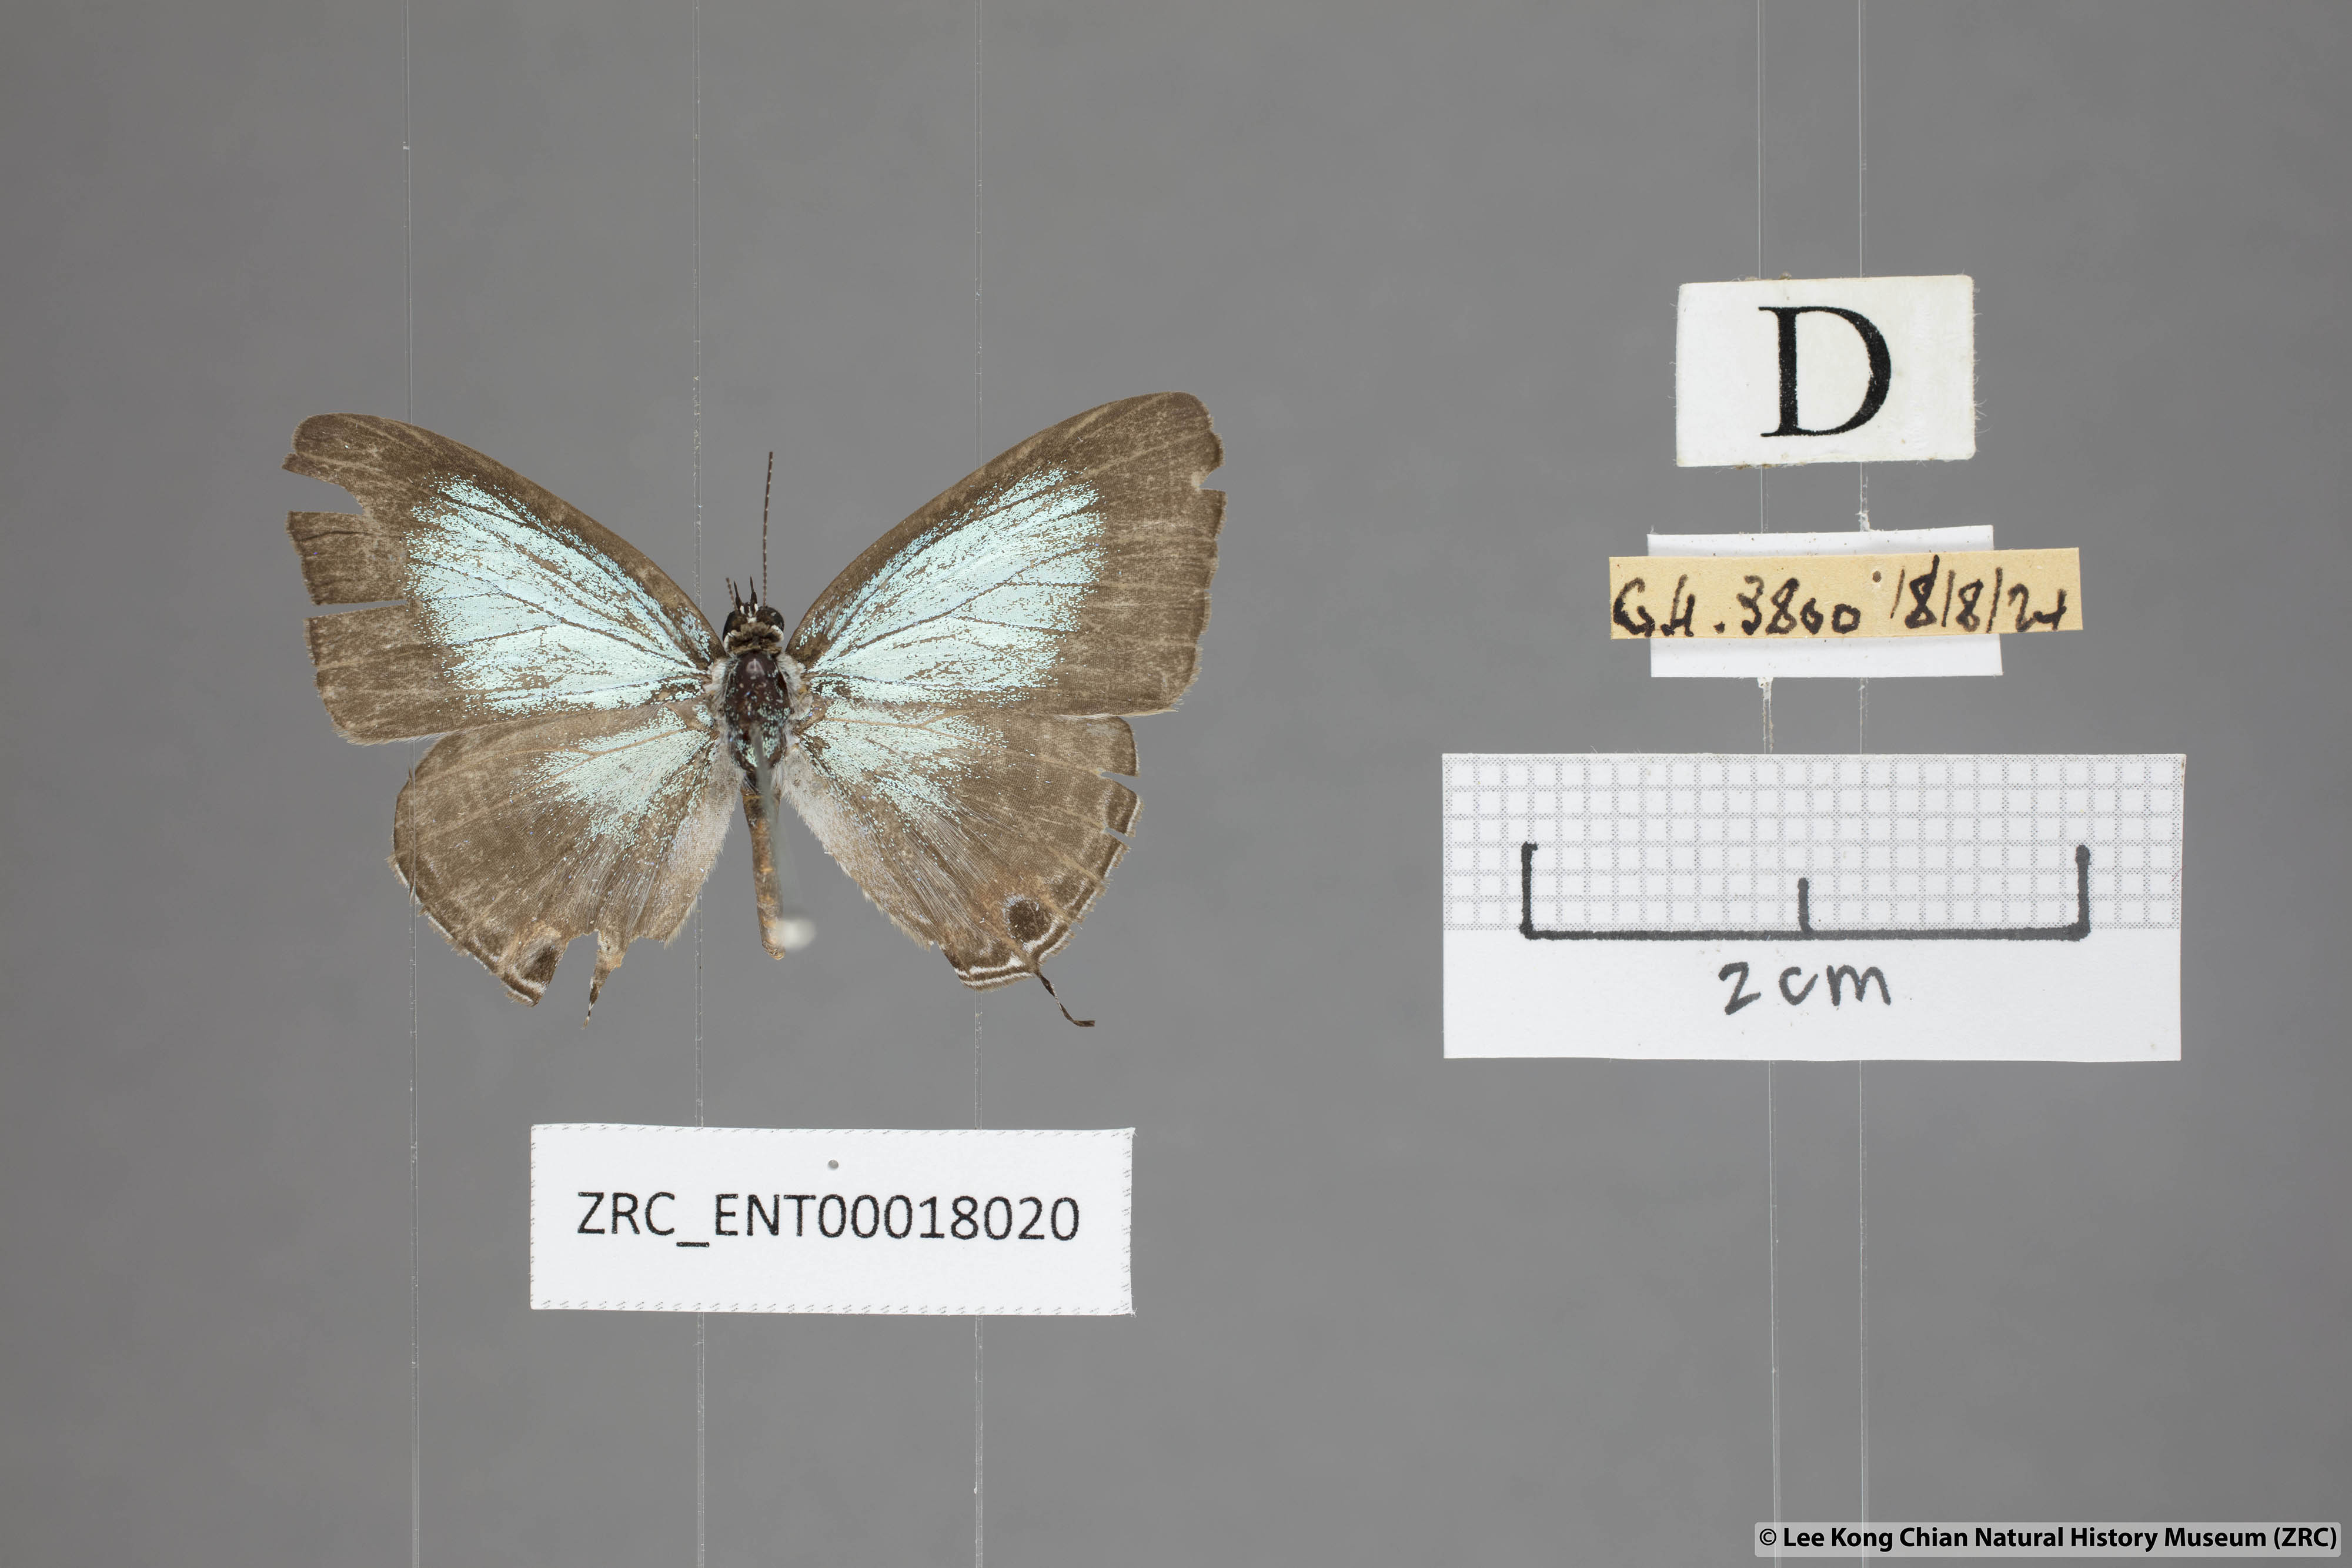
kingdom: Animalia
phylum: Arthropoda
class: Insecta
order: Lepidoptera
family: Lycaenidae
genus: Jamides
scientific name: Jamides abdul
